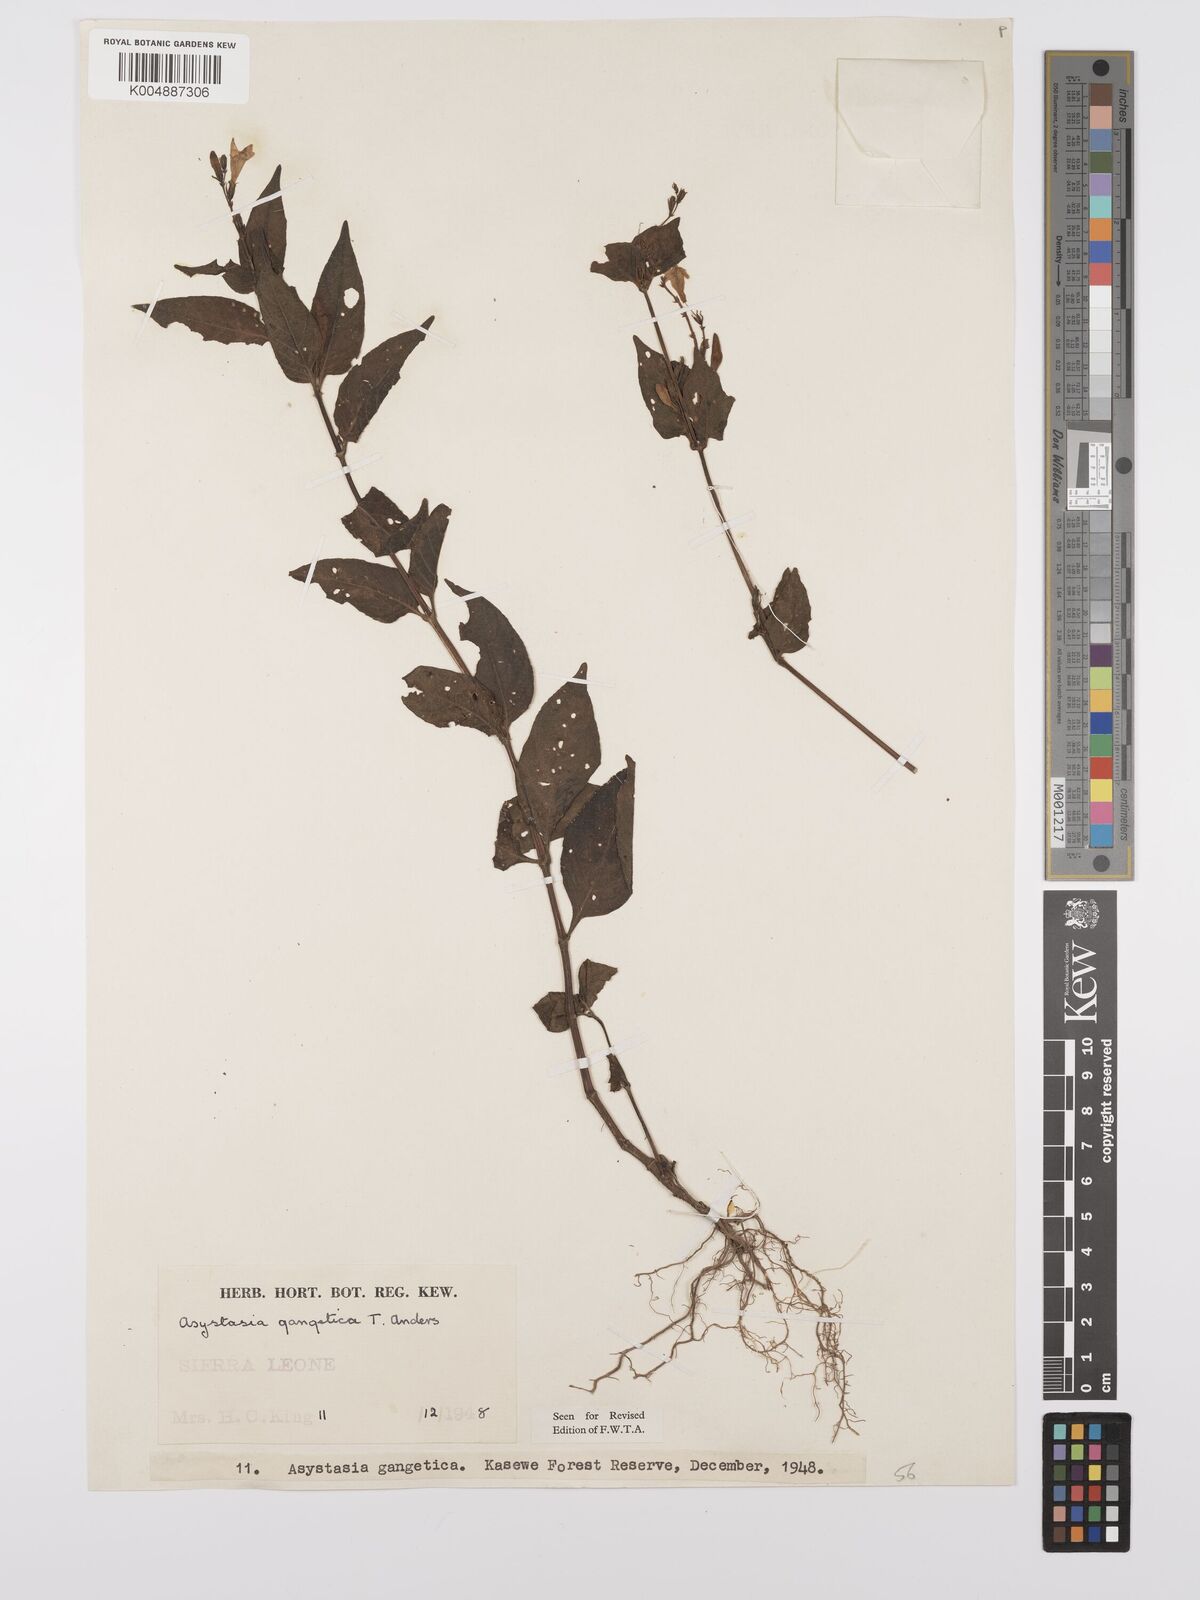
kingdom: Plantae
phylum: Tracheophyta
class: Magnoliopsida
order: Lamiales
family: Acanthaceae
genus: Asystasia
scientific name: Asystasia gangetica
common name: Chinese violet
